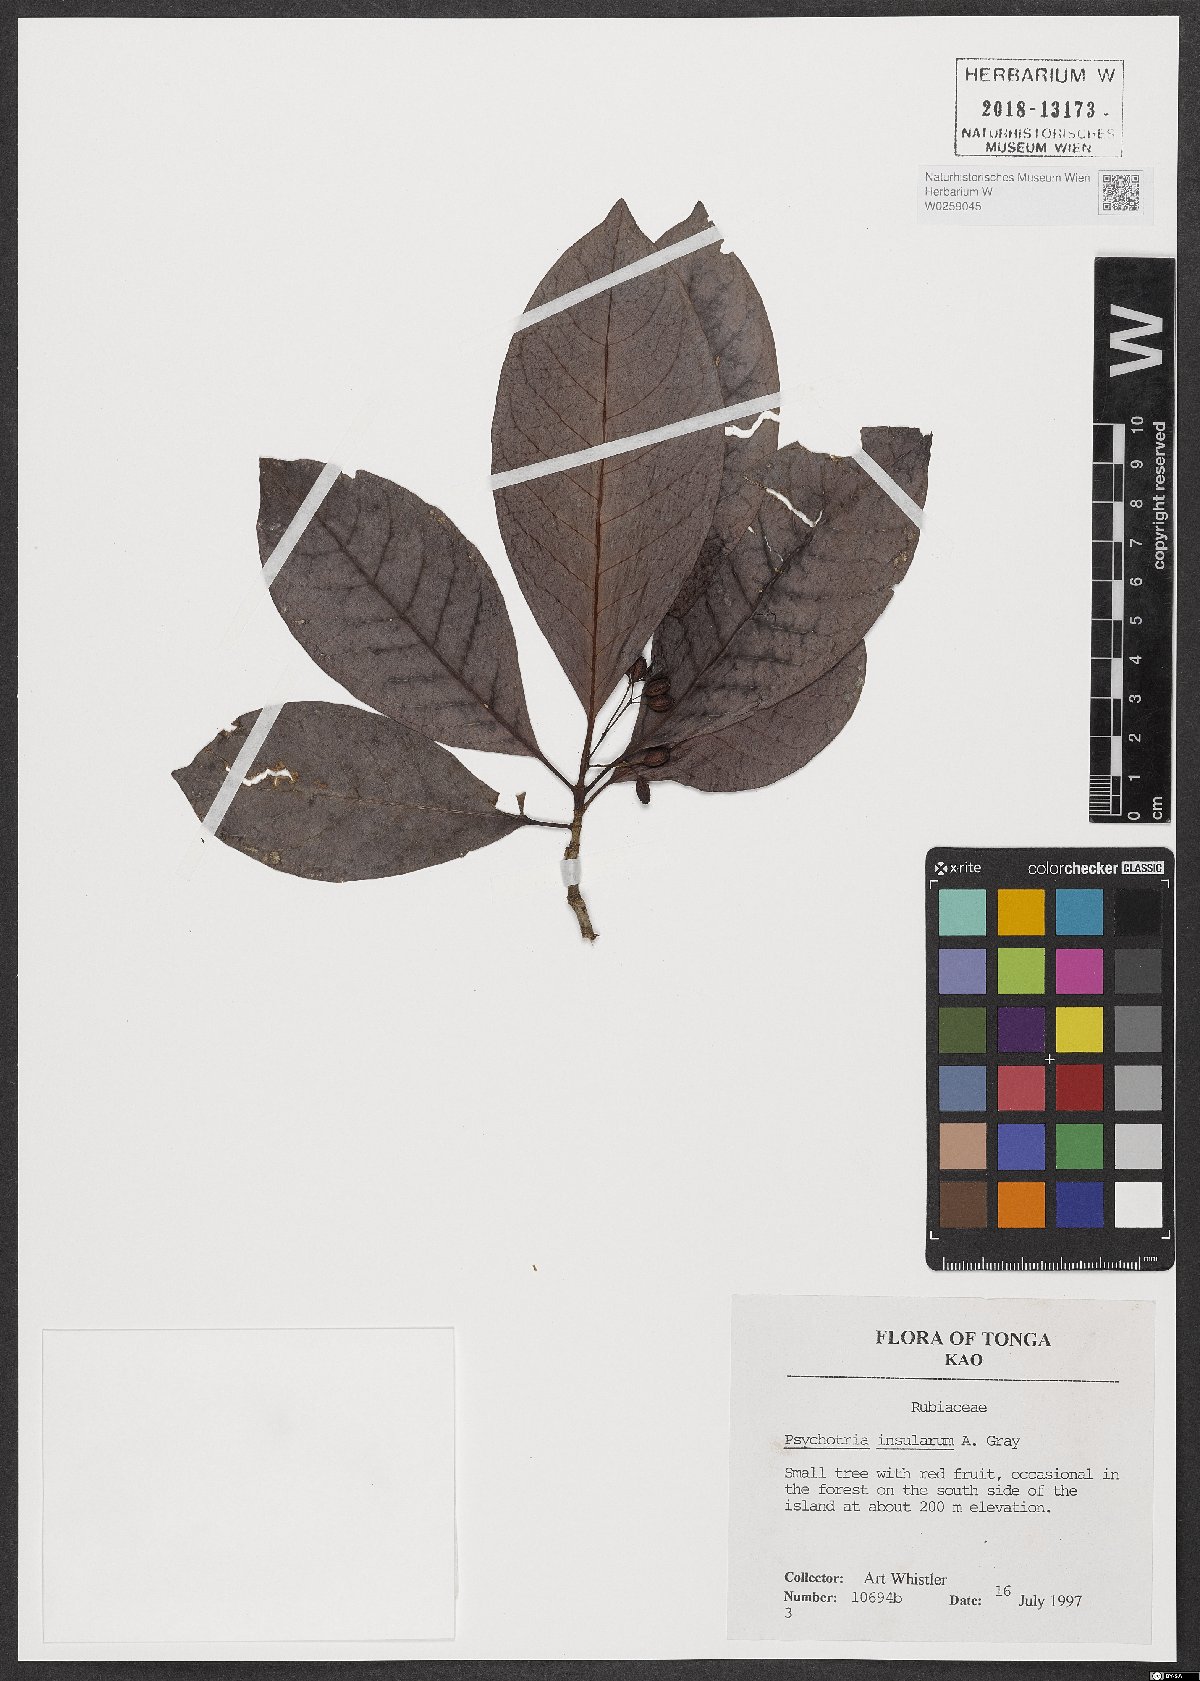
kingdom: Plantae
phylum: Tracheophyta
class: Magnoliopsida
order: Gentianales
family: Rubiaceae
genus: Psychotria
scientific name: Psychotria insularum
